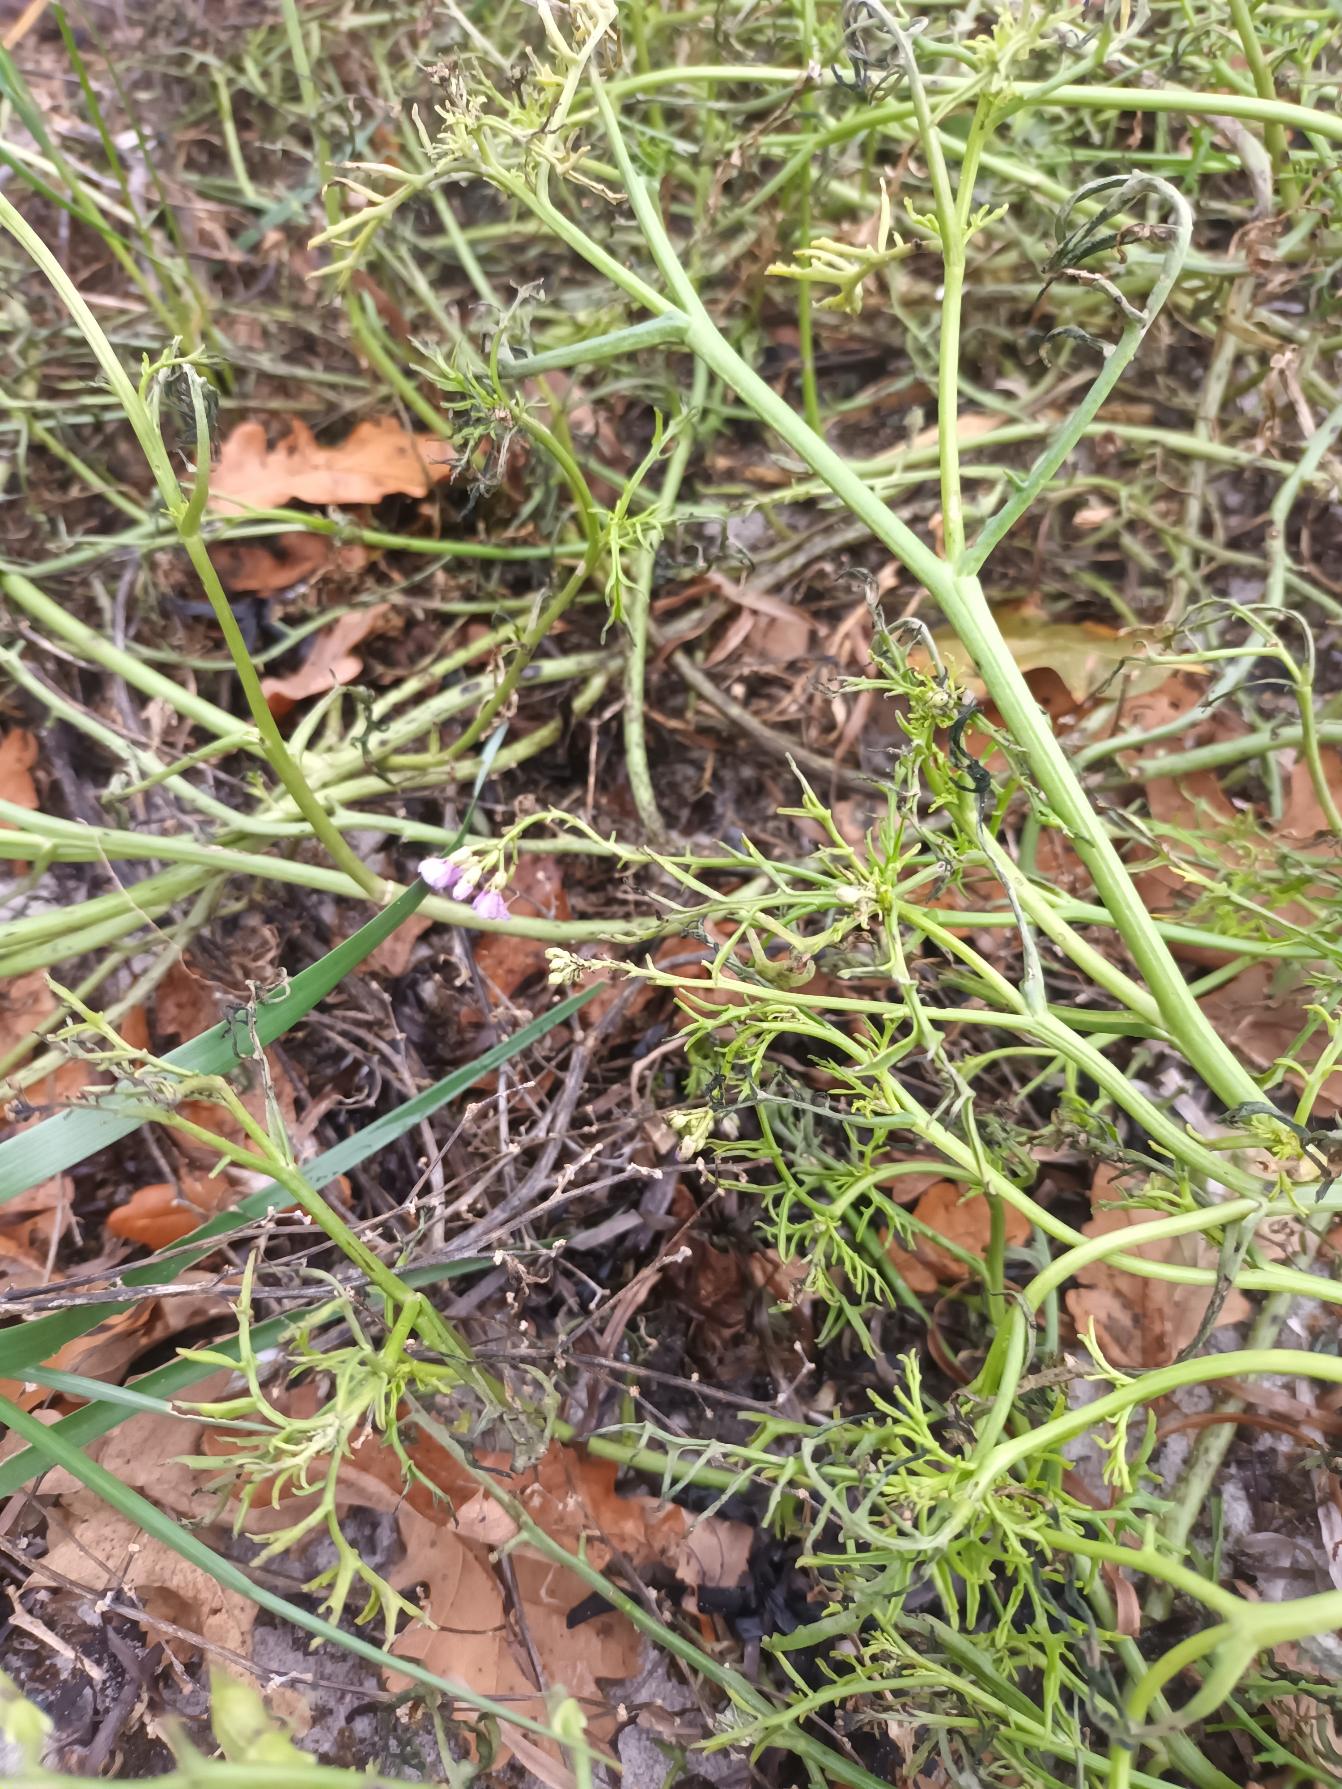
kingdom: Plantae
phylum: Tracheophyta
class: Magnoliopsida
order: Brassicales
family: Brassicaceae
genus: Cakile
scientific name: Cakile maritima
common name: Strandsennep
